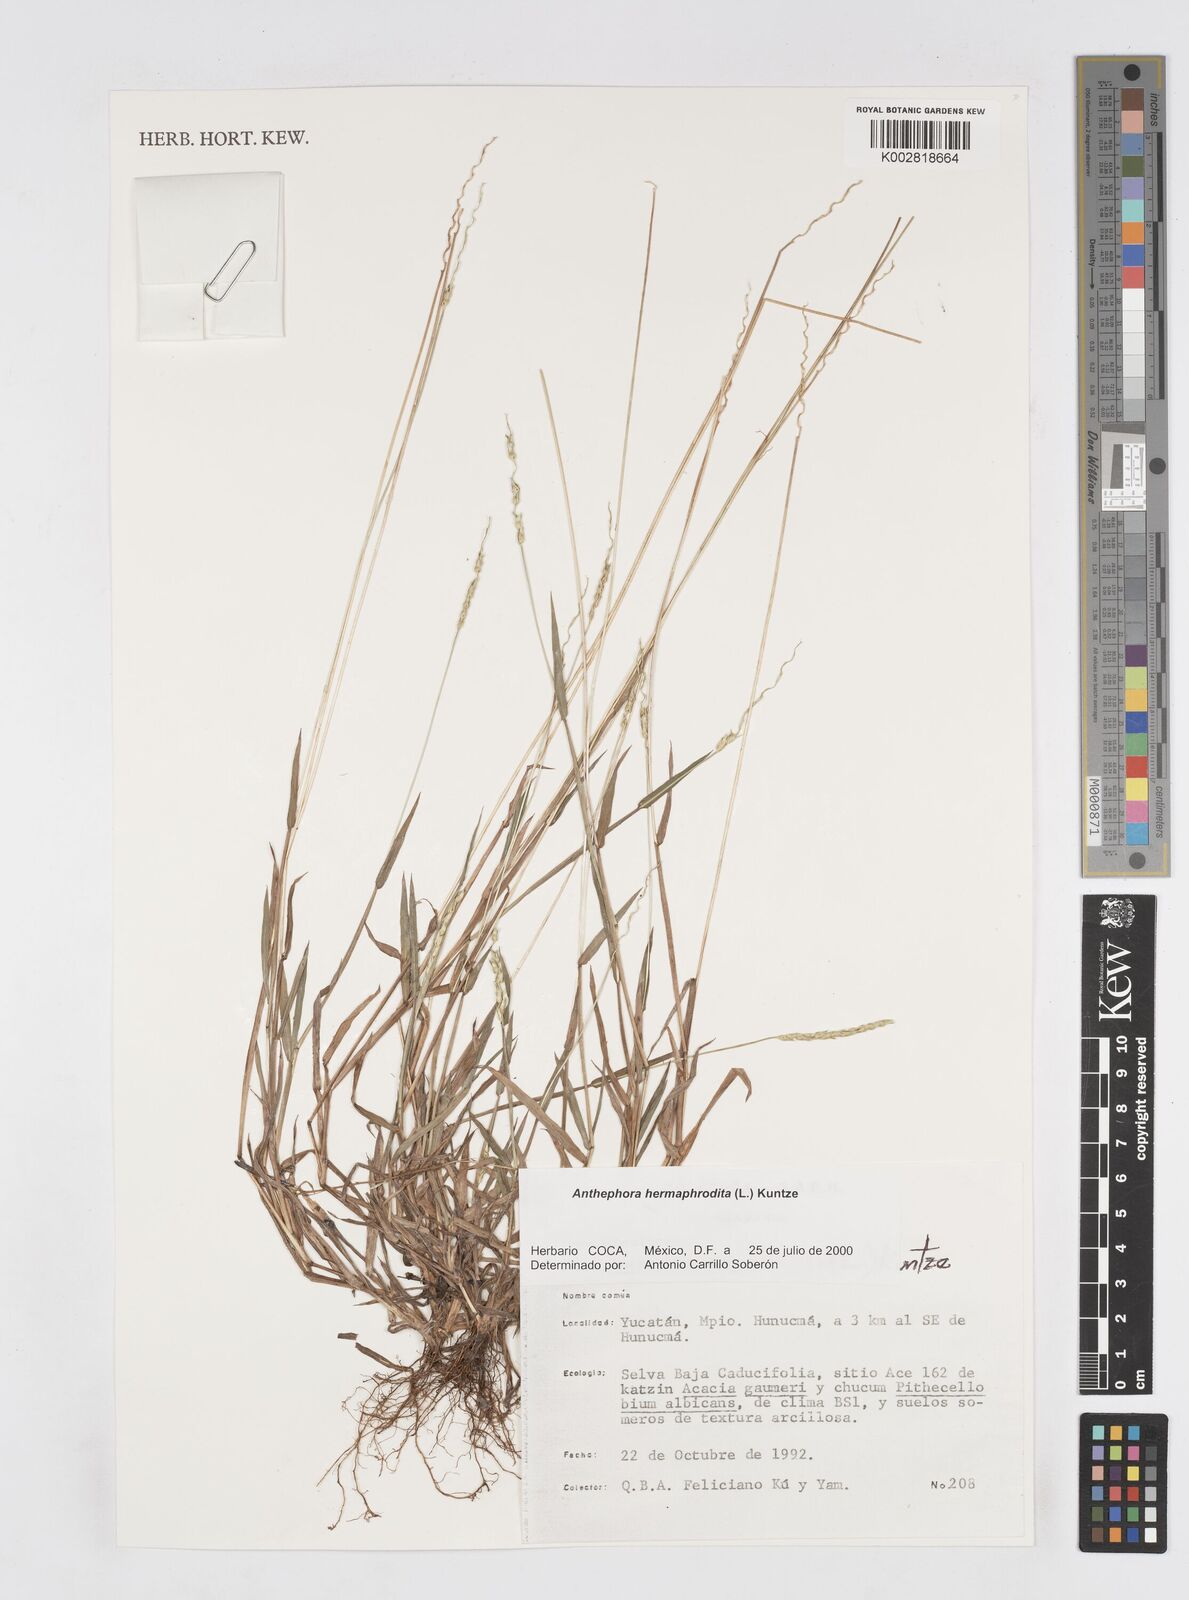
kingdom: Plantae
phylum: Tracheophyta
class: Liliopsida
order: Poales
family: Poaceae
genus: Anthephora
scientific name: Anthephora hermaphrodita
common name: Oldfield grass
